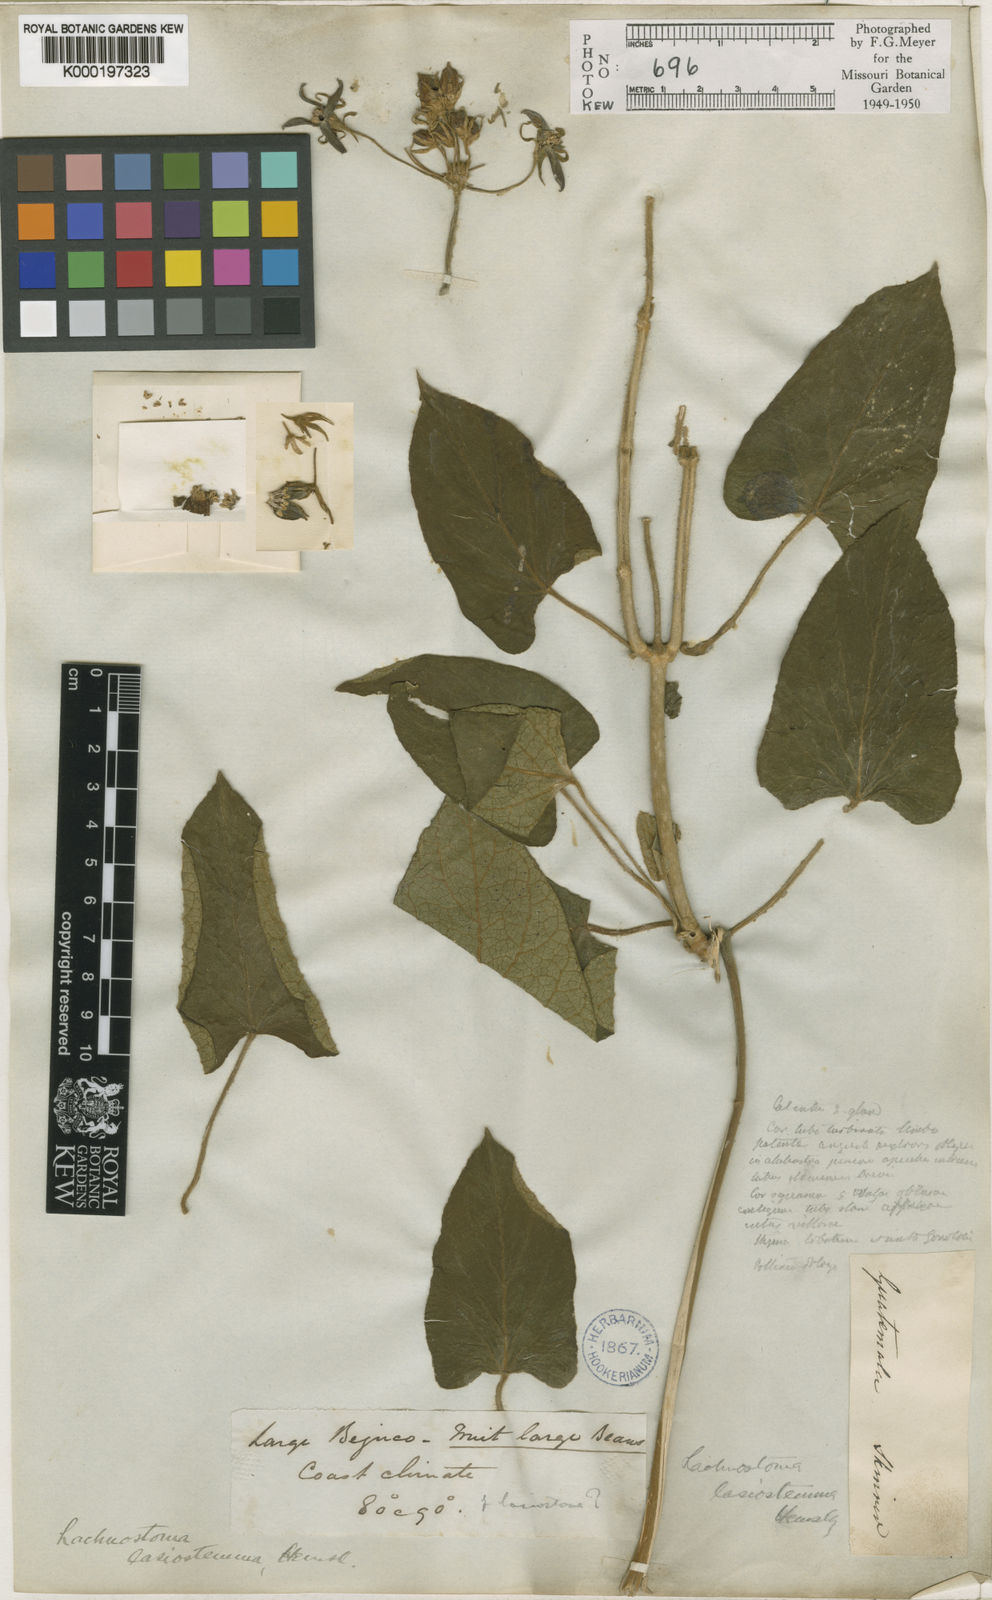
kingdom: Plantae
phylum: Tracheophyta
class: Magnoliopsida
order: Gentianales
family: Apocynaceae
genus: Gonolobus
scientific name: Gonolobus lasiostemma
